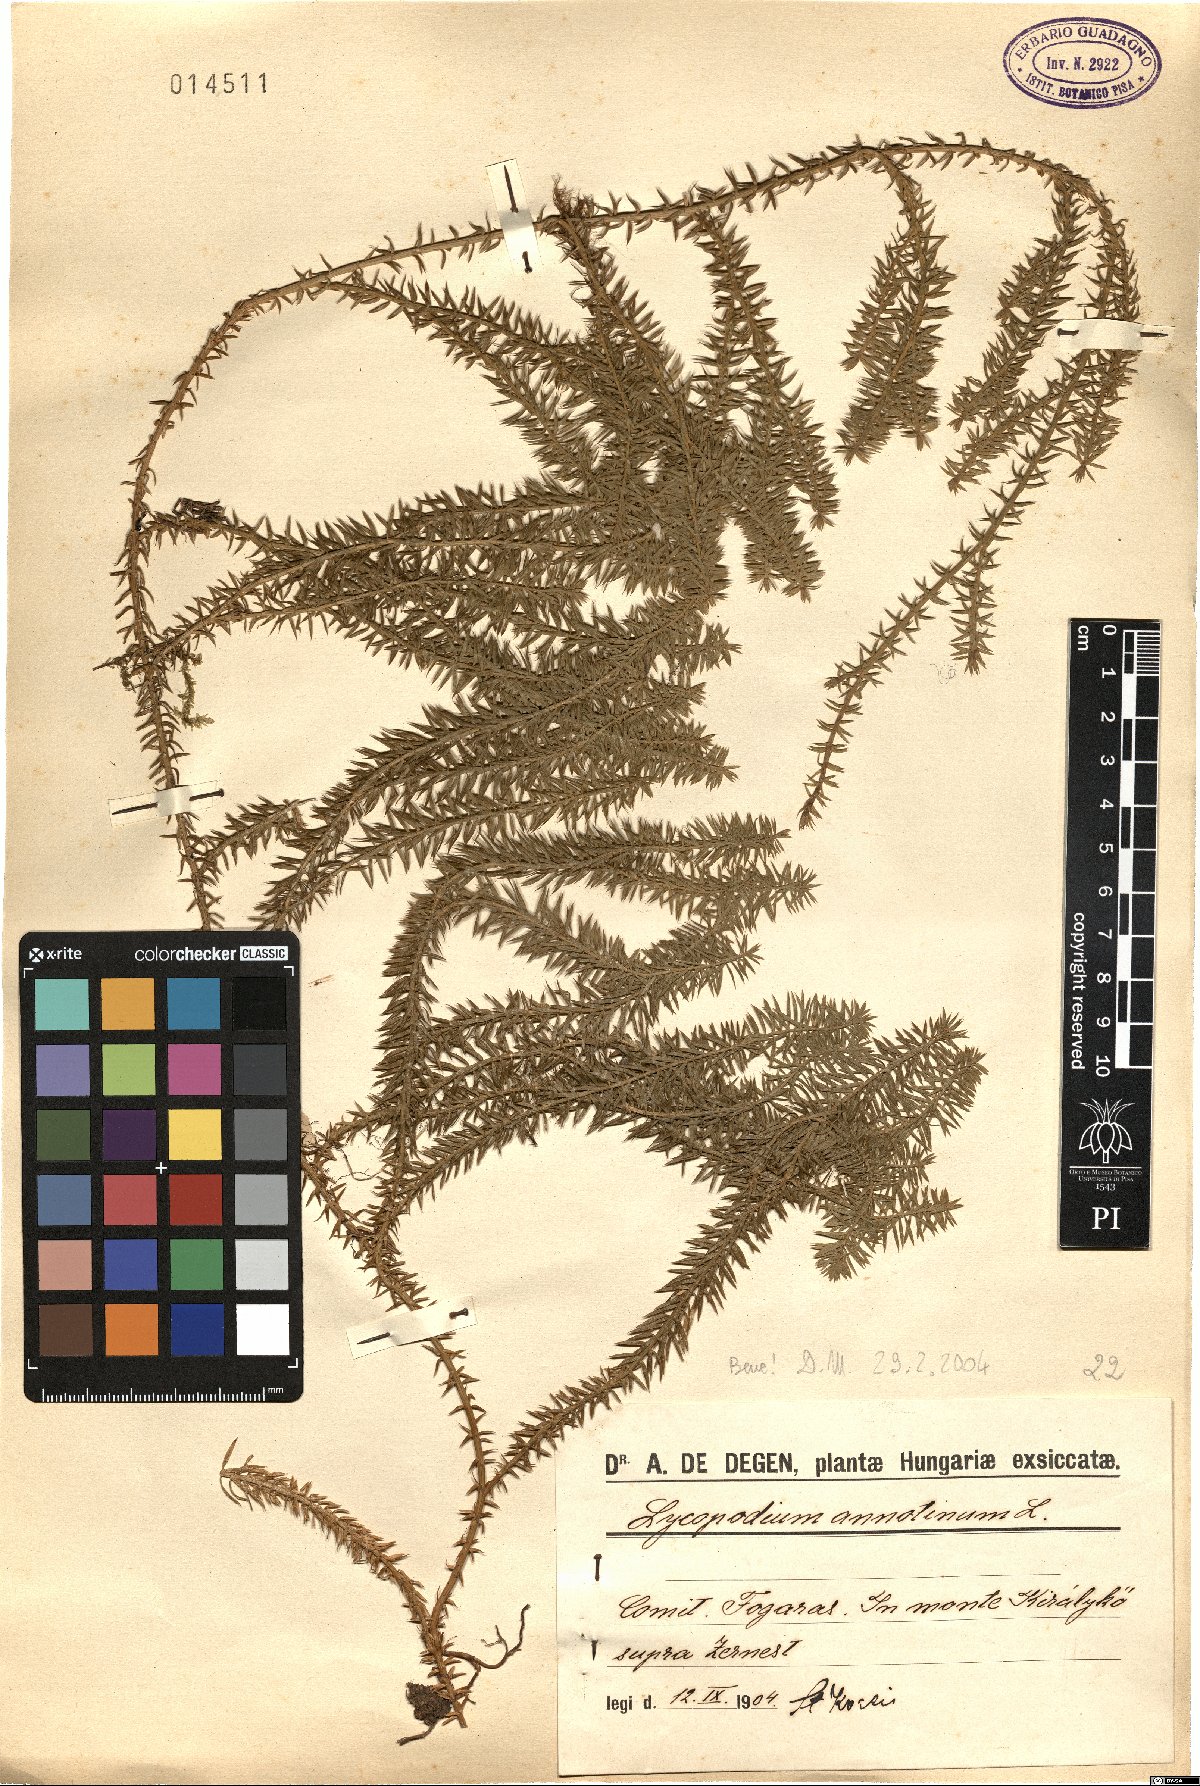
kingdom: Plantae
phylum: Tracheophyta
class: Lycopodiopsida
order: Lycopodiales
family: Lycopodiaceae
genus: Spinulum
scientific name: Spinulum annotinum
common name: Interrupted club-moss
